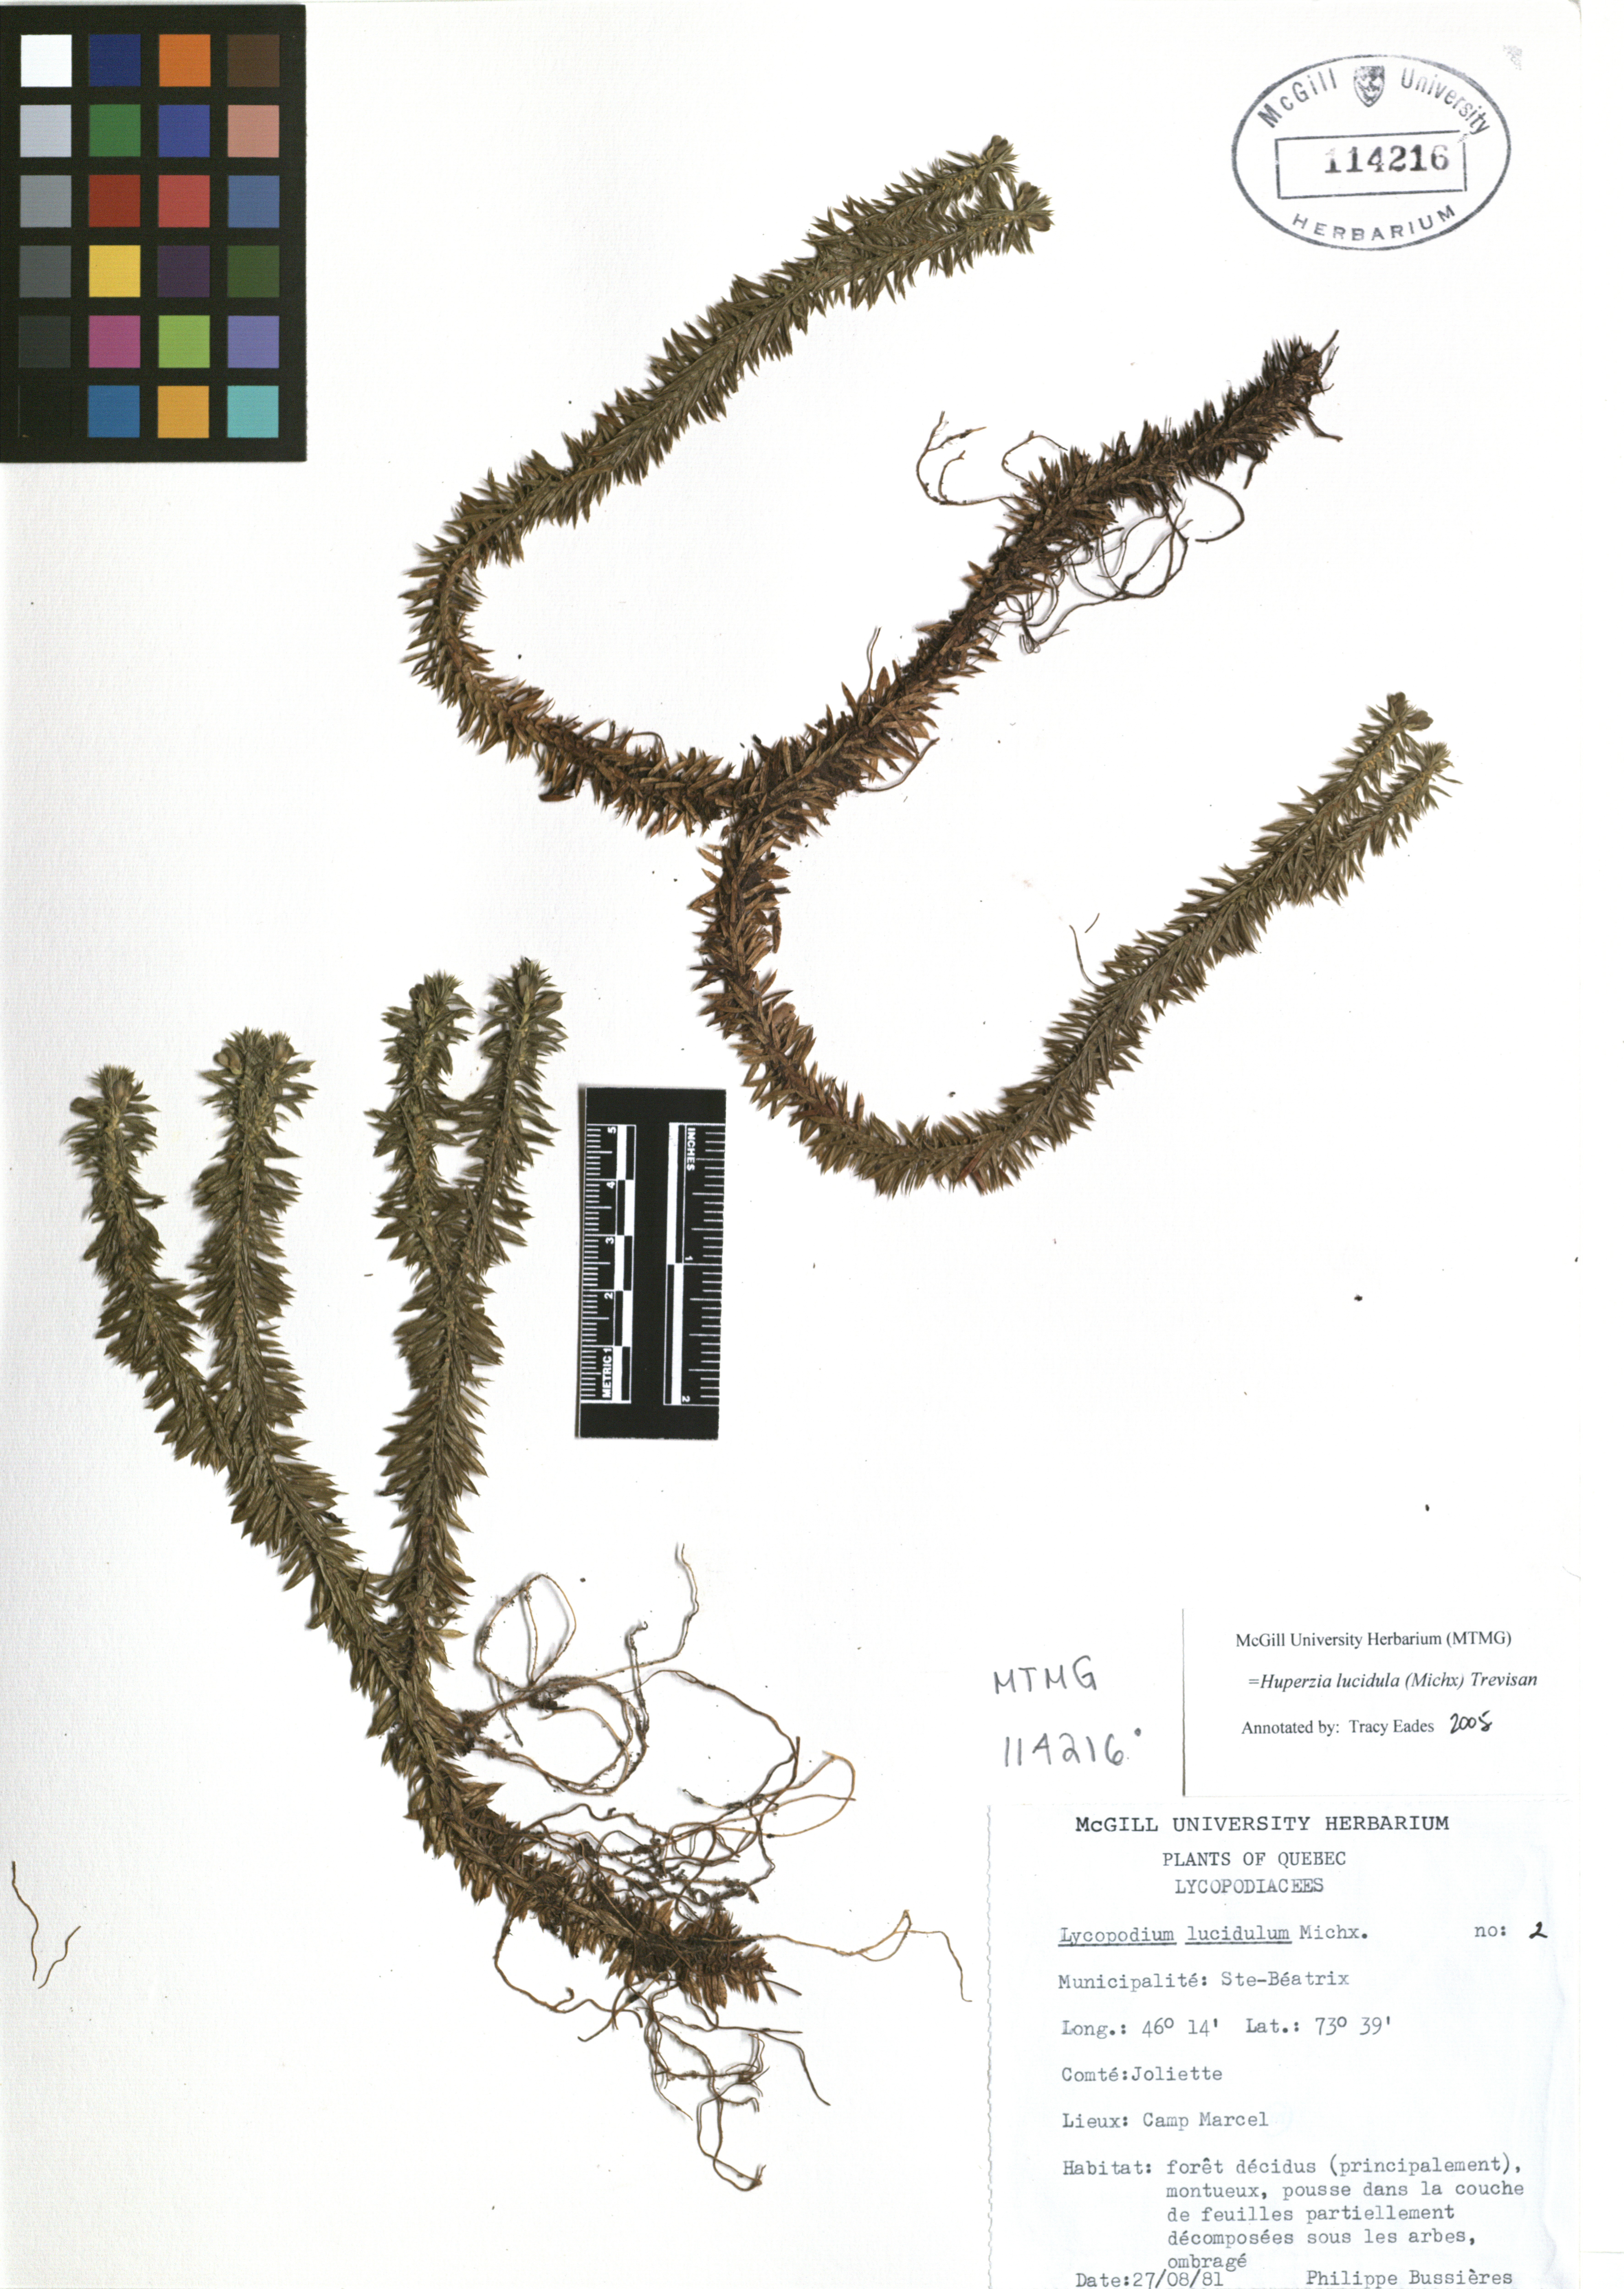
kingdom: Plantae
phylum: Tracheophyta
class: Lycopodiopsida
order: Lycopodiales
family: Lycopodiaceae
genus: Huperzia
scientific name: Huperzia lucidula
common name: Shining clubmoss
